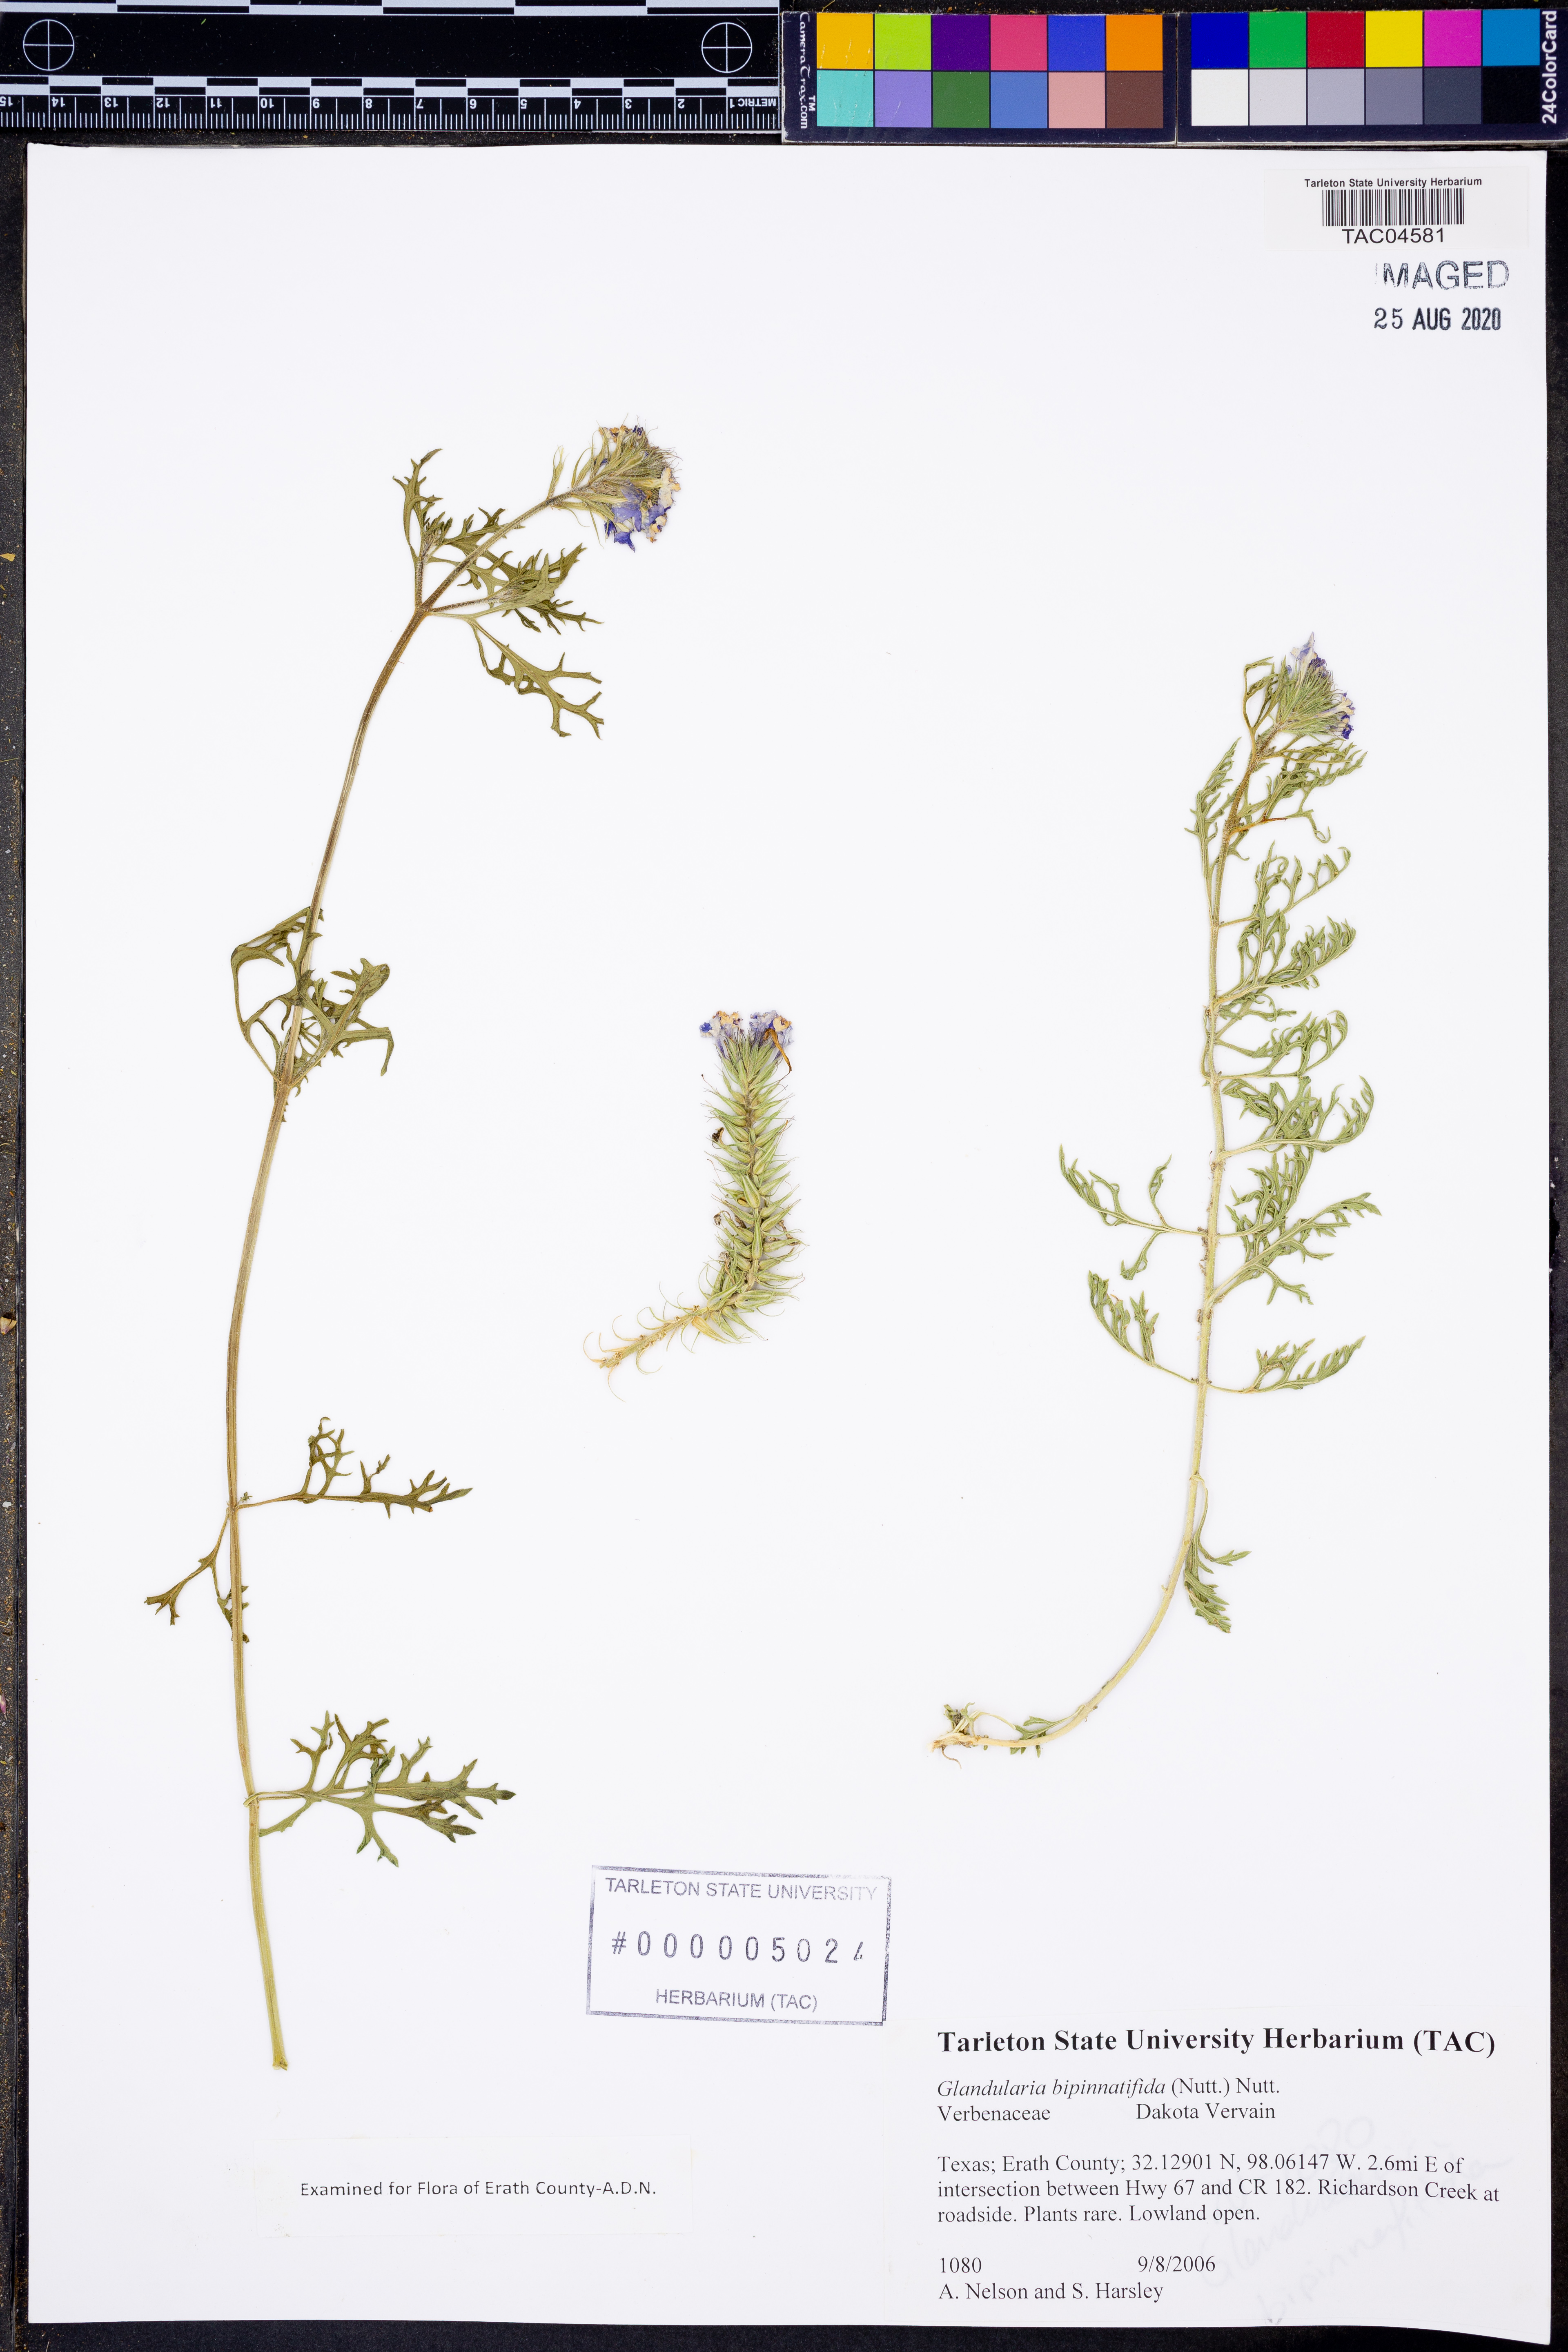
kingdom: Plantae
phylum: Tracheophyta
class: Magnoliopsida
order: Lamiales
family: Verbenaceae
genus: Verbena
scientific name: Verbena bipinnatifida
